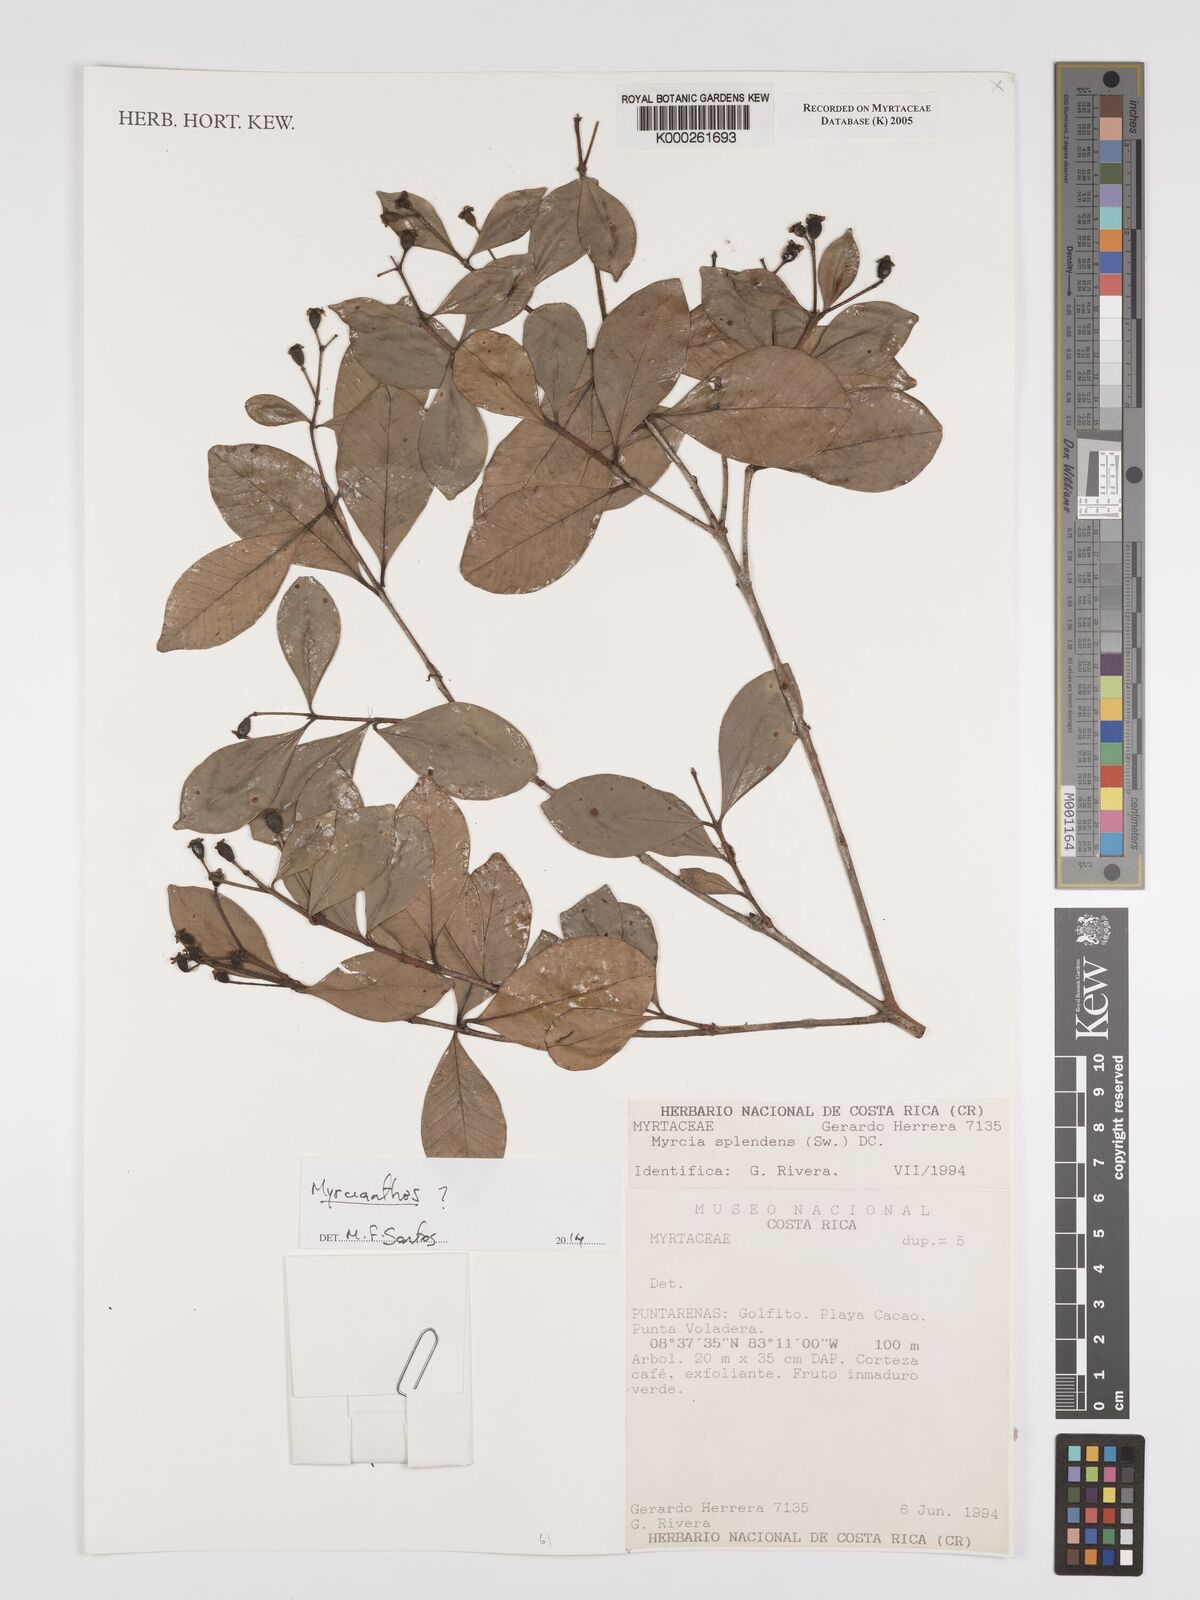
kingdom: Plantae
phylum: Tracheophyta
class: Magnoliopsida
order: Myrtales
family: Myrtaceae
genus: Myrcia
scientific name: Myrcia splendens
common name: Surinam cherry
